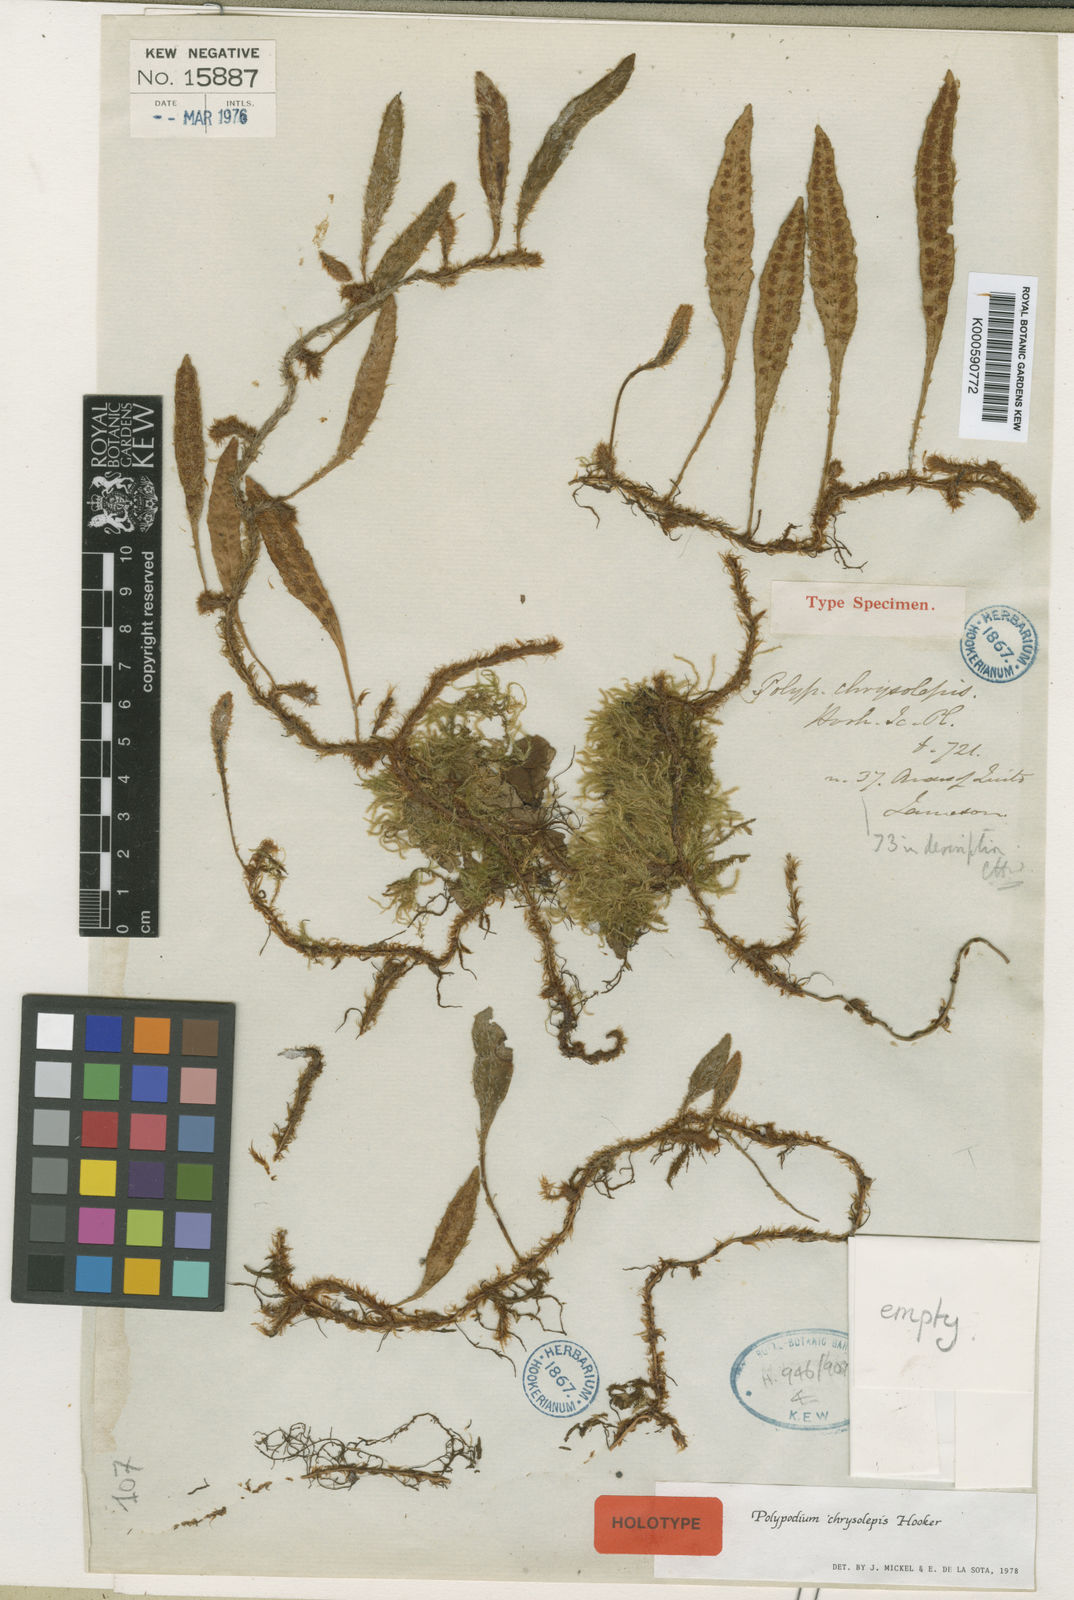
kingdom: Plantae
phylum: Tracheophyta
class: Polypodiopsida
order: Polypodiales
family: Polypodiaceae
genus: Adetogramma
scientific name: Adetogramma chrysolepis
